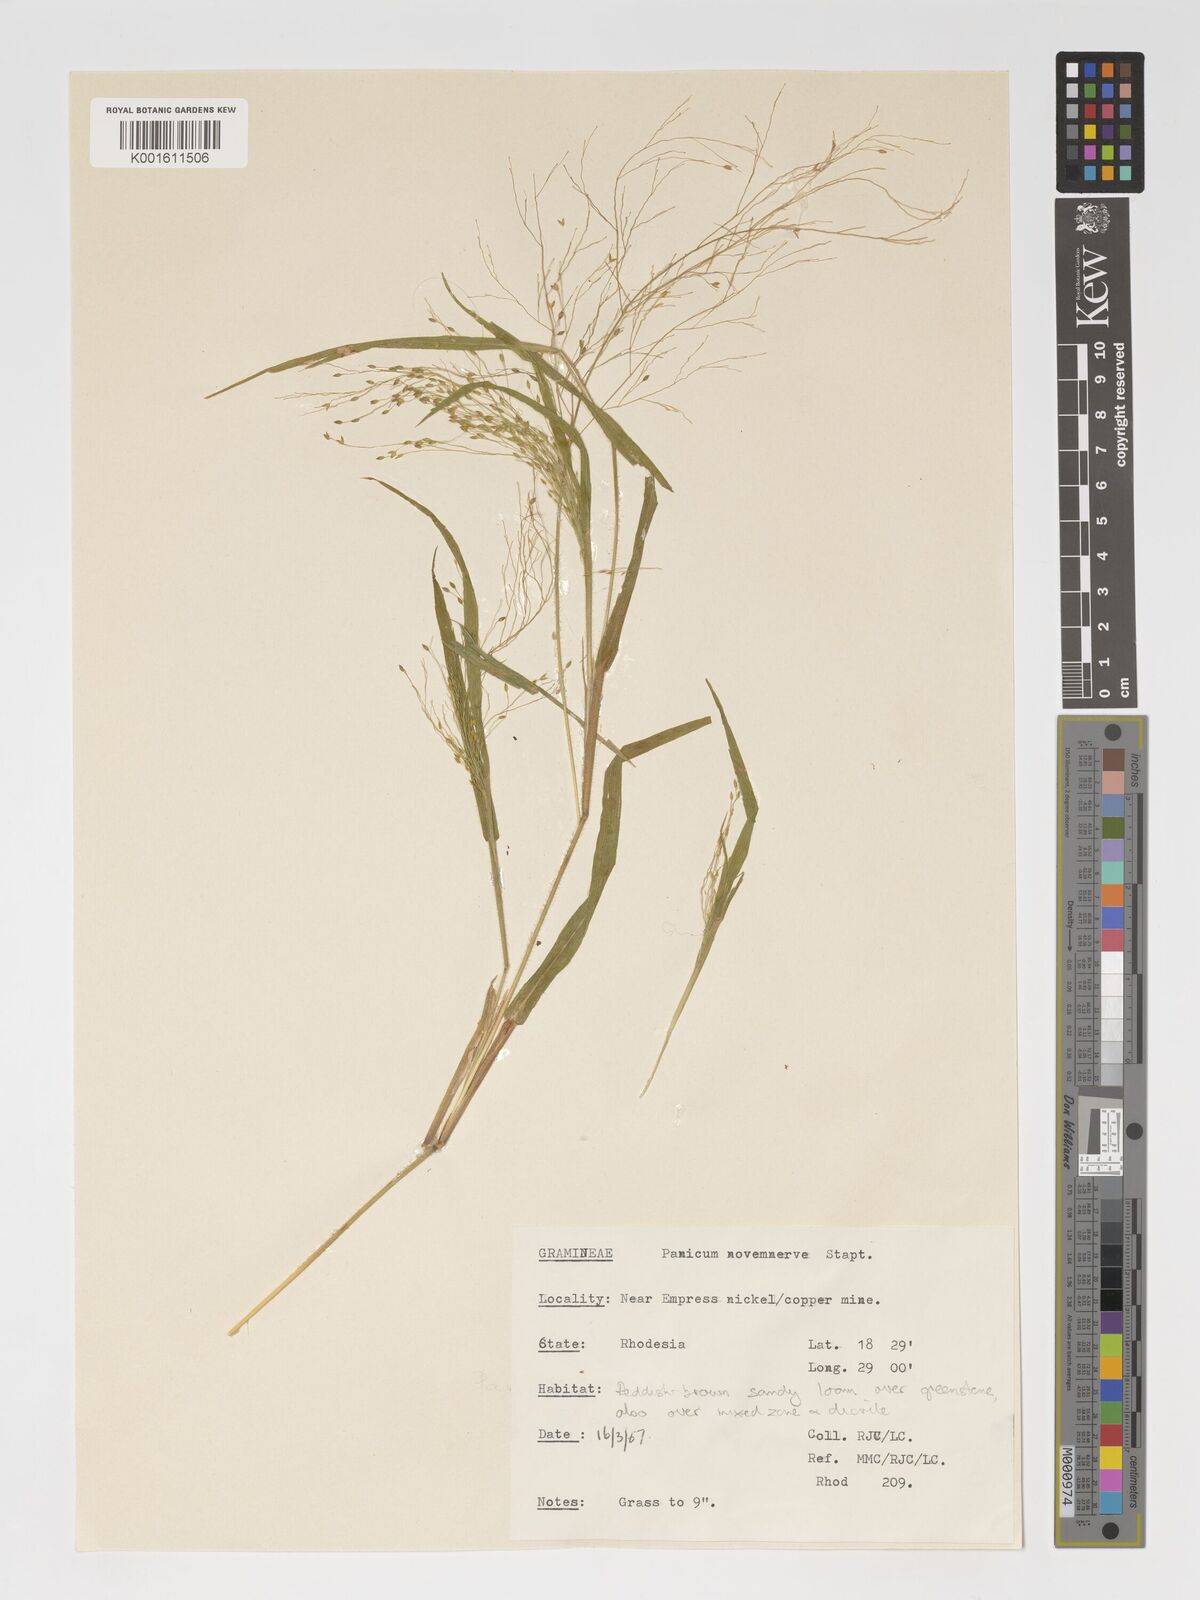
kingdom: Plantae
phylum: Tracheophyta
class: Liliopsida
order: Poales
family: Poaceae
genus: Panicum
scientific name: Panicum novemnerve
